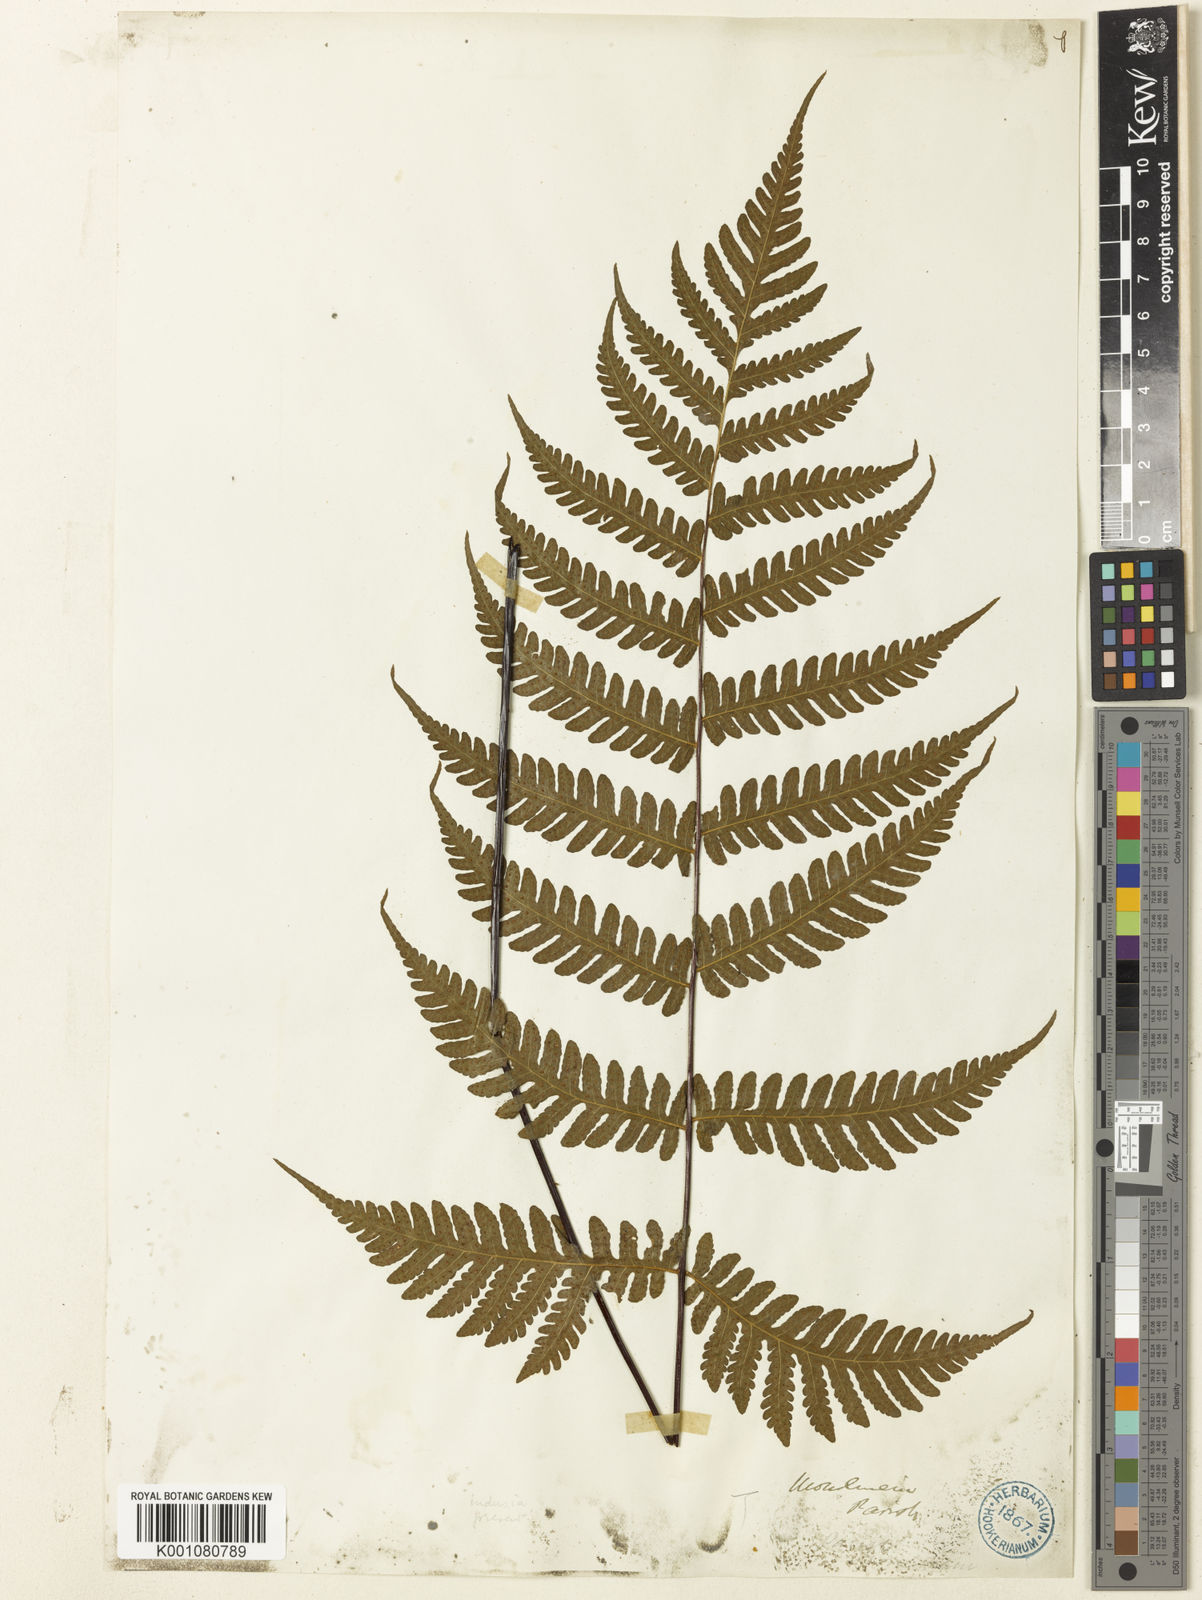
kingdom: Plantae
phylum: Tracheophyta
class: Polypodiopsida
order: Polypodiales
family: Tectariaceae
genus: Tectaria
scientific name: Tectaria sagenioides
